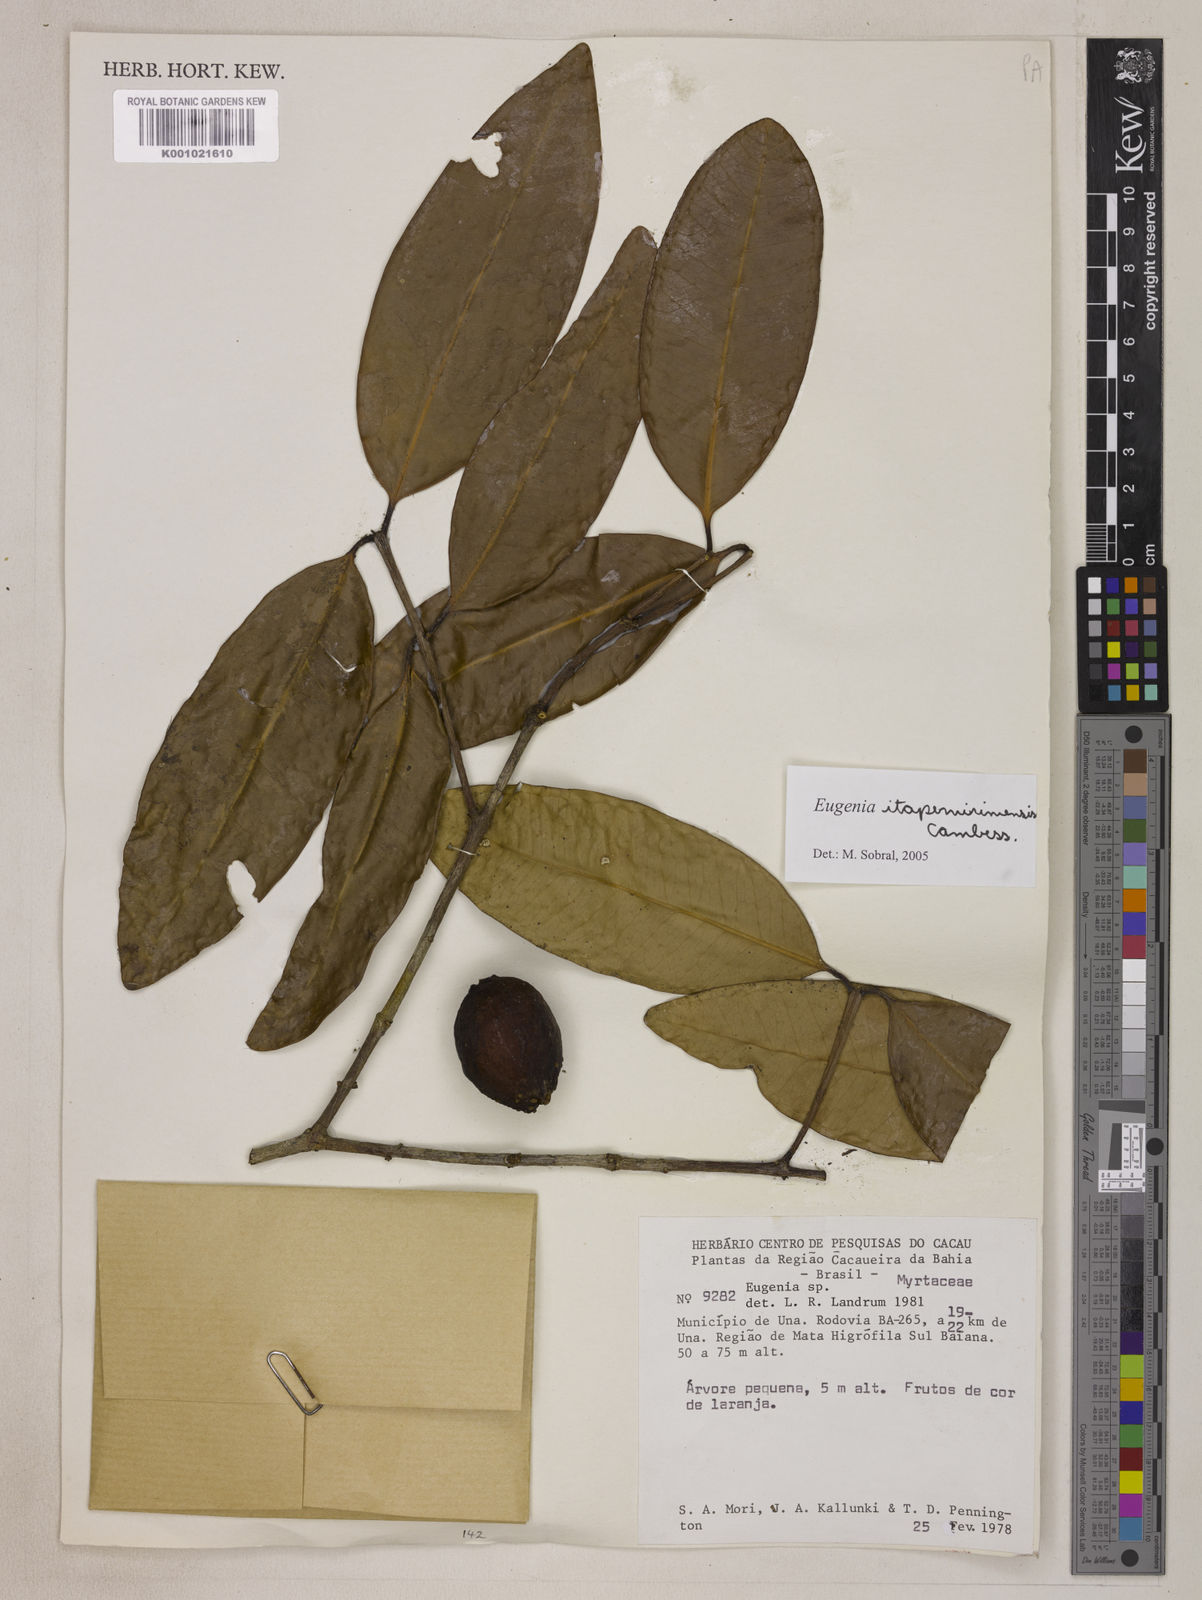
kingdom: Plantae
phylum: Tracheophyta
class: Magnoliopsida
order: Myrtales
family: Myrtaceae
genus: Eugenia
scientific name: Eugenia itapemirimensis
